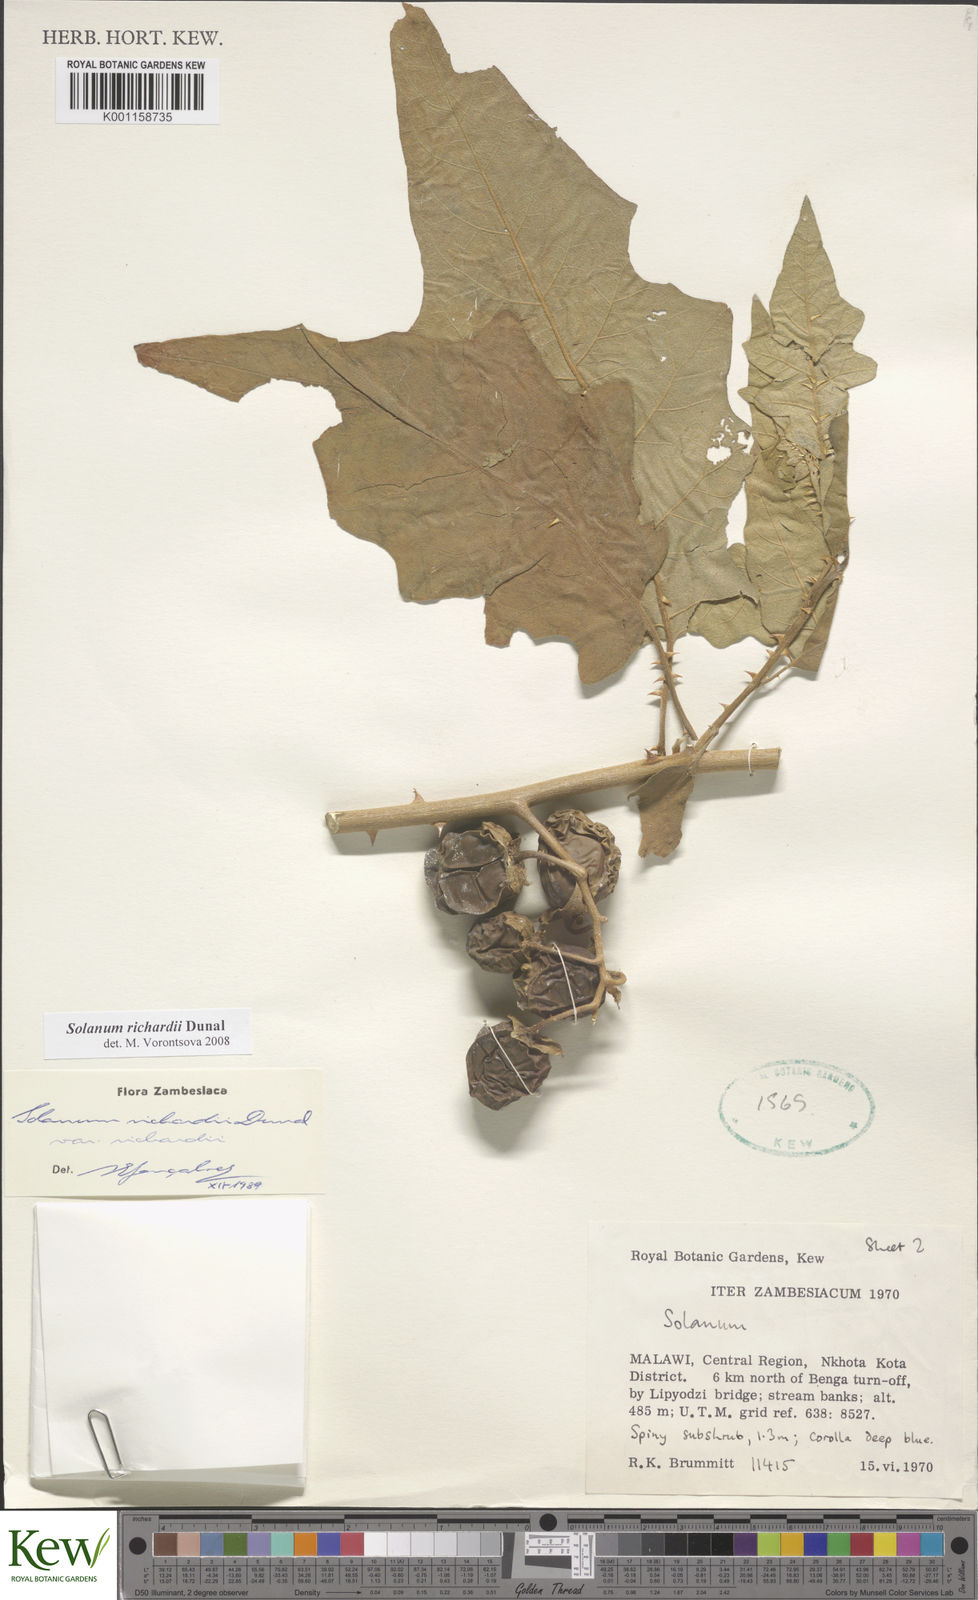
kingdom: Plantae
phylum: Tracheophyta
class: Magnoliopsida
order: Solanales
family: Solanaceae
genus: Solanum
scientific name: Solanum richardii
